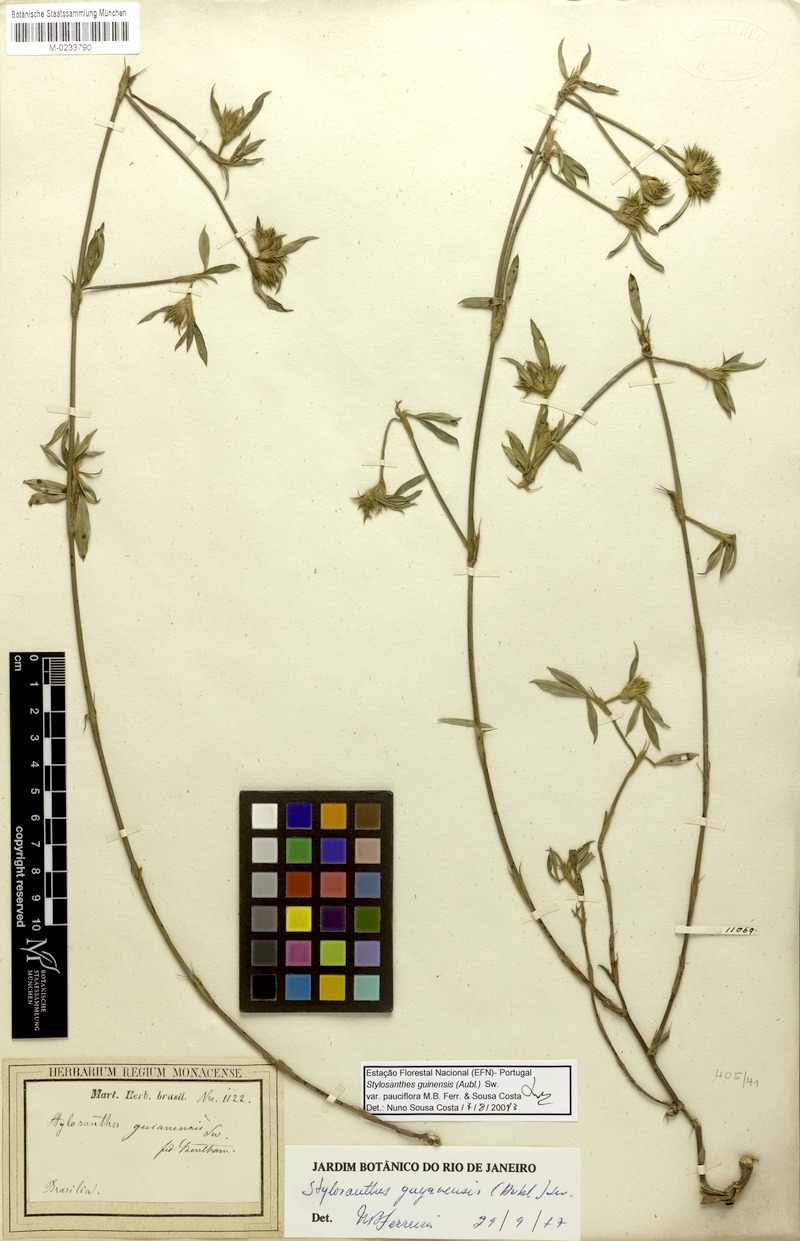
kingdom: Plantae
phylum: Tracheophyta
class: Magnoliopsida
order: Fabales
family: Fabaceae
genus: Stylosanthes
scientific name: Stylosanthes guianensis
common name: Pencil flower
